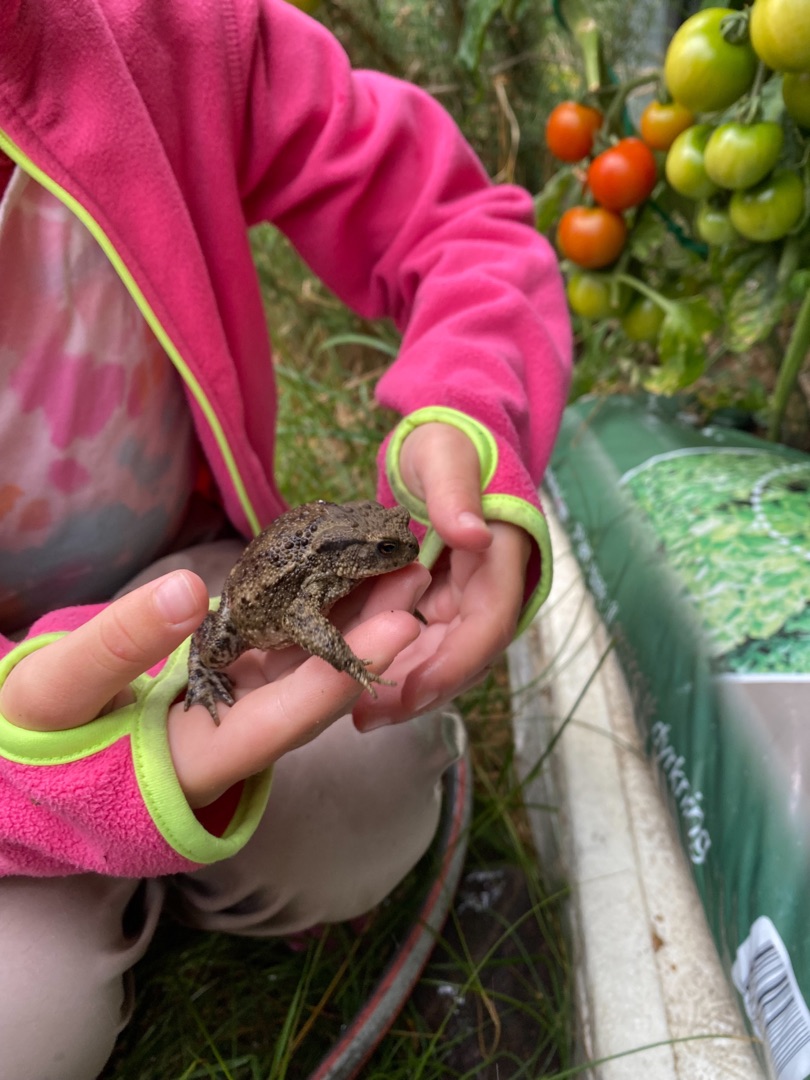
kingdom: Animalia
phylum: Chordata
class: Amphibia
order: Anura
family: Bufonidae
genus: Bufo
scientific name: Bufo bufo
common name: Skrubtudse
